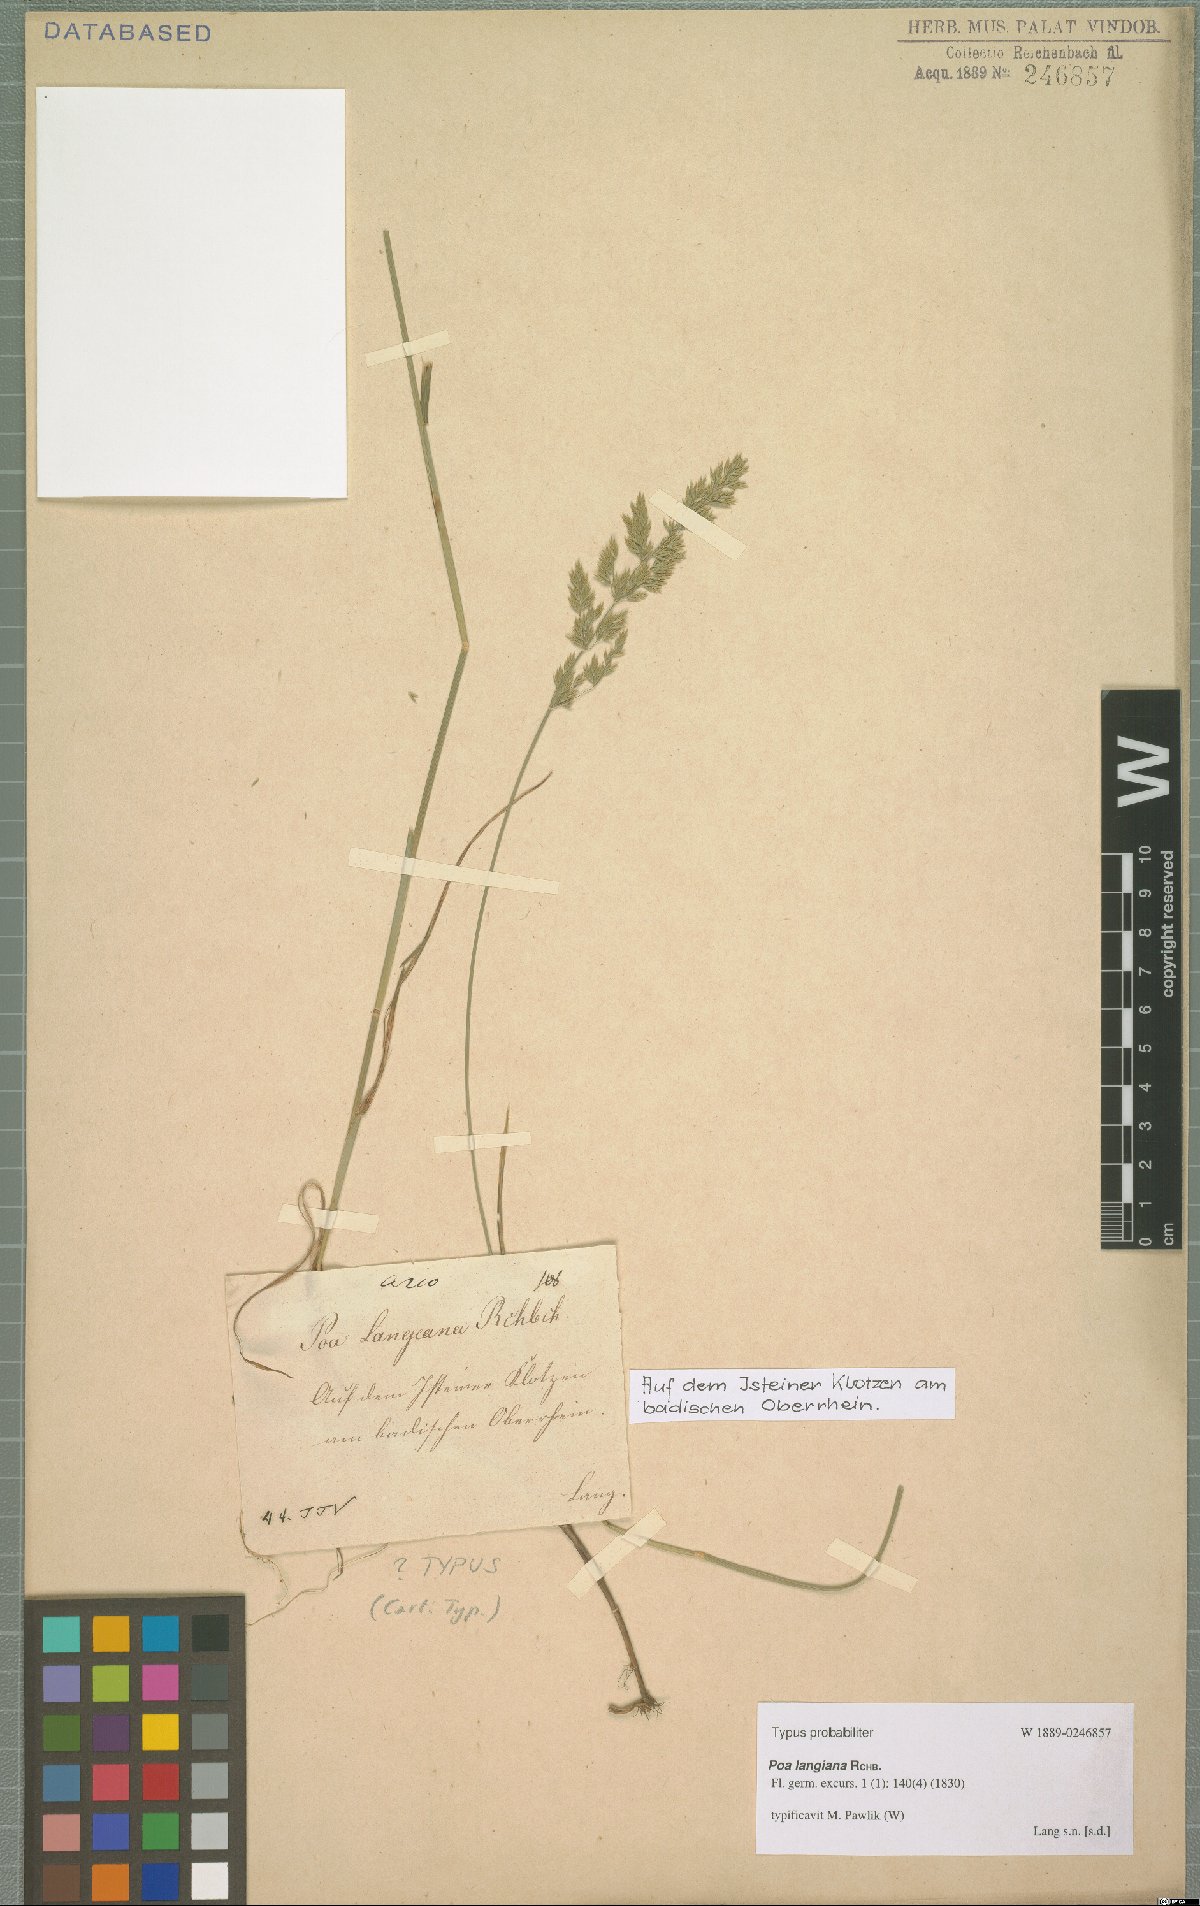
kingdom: Plantae
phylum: Tracheophyta
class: Liliopsida
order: Poales
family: Poaceae
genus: Poa
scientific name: Poa compressa
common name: Canada bluegrass
